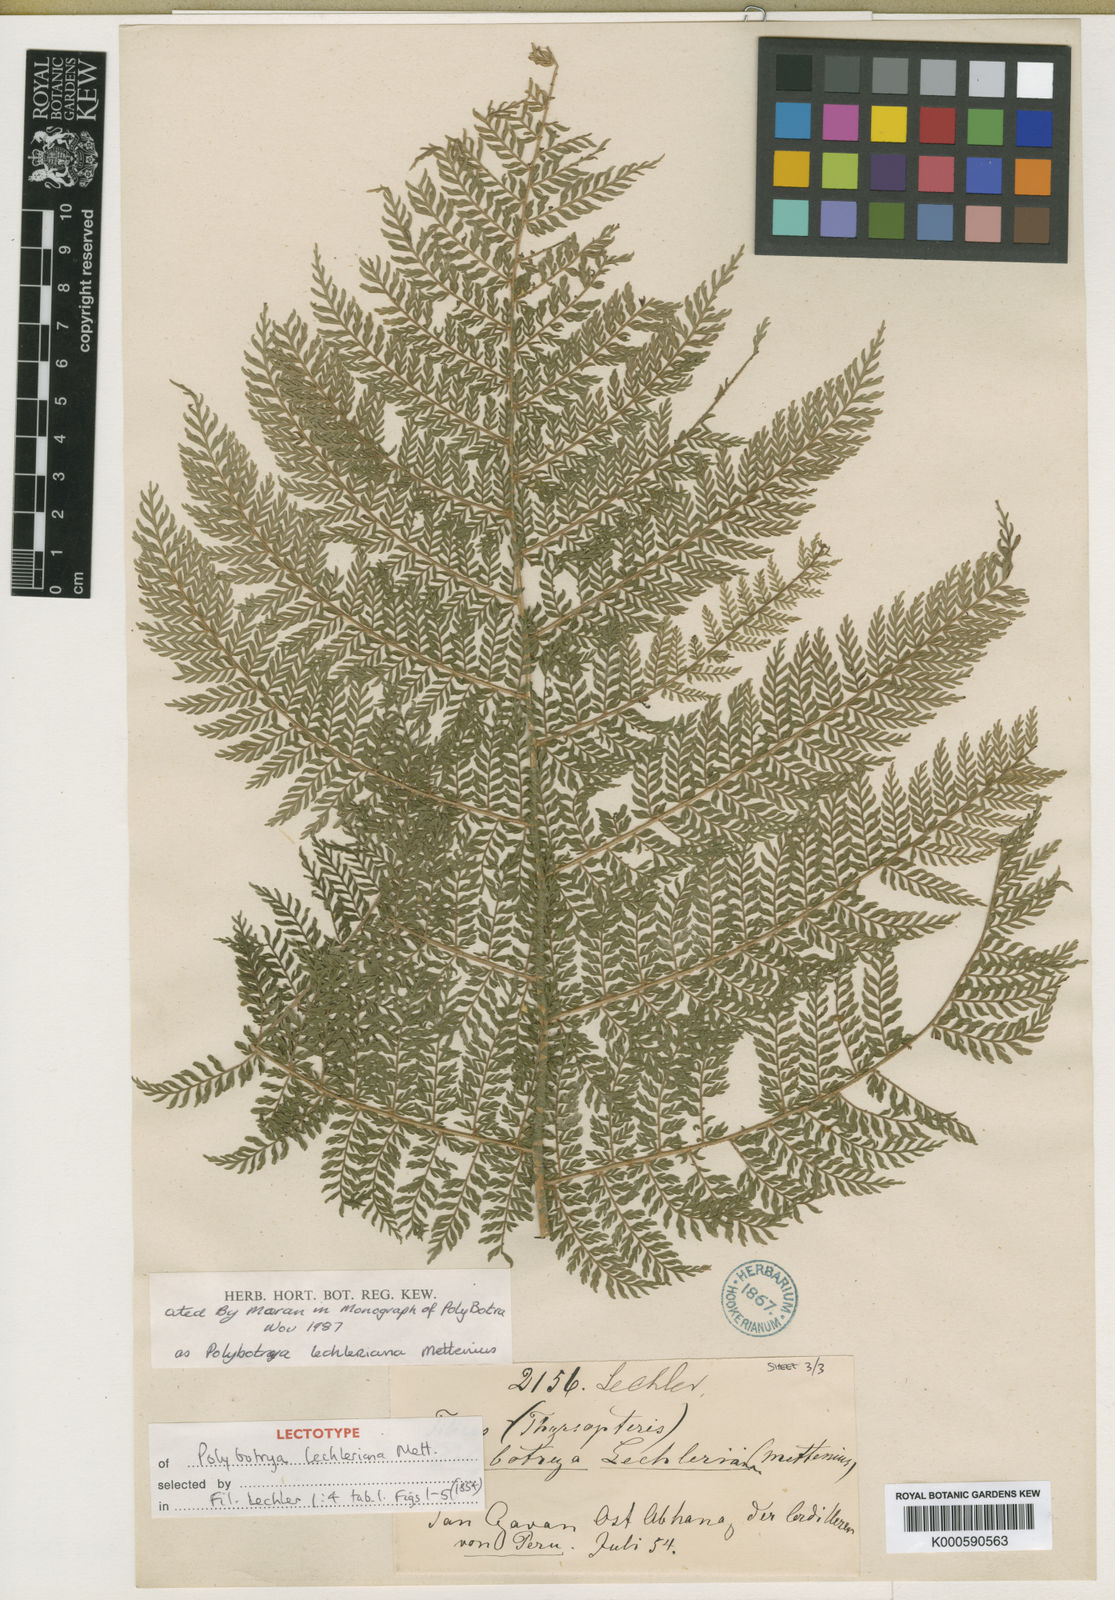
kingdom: Plantae
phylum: Tracheophyta
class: Polypodiopsida
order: Polypodiales
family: Dryopteridaceae
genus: Polybotrya
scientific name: Polybotrya lechleriana
